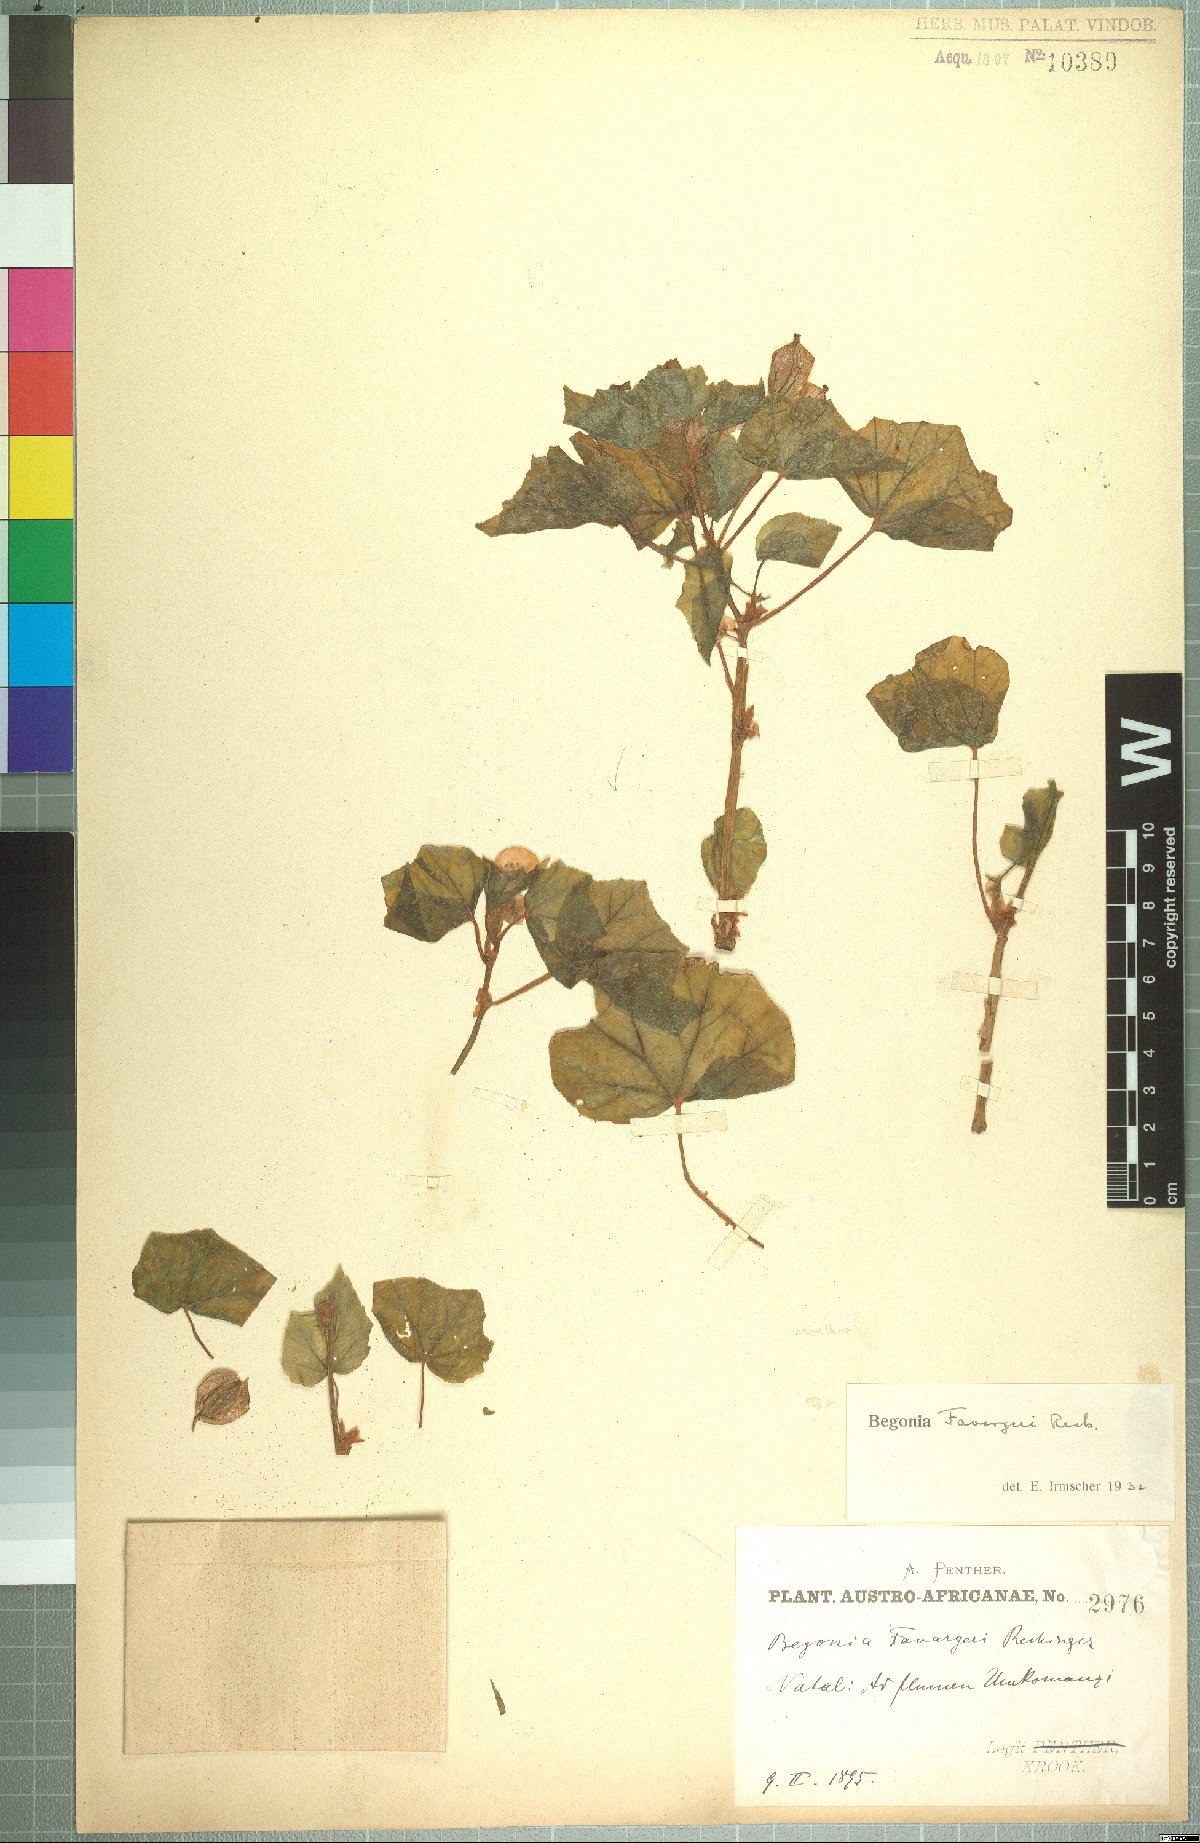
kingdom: Plantae
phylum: Tracheophyta
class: Magnoliopsida
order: Cucurbitales
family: Begoniaceae
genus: Begonia
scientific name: Begonia homonyma
